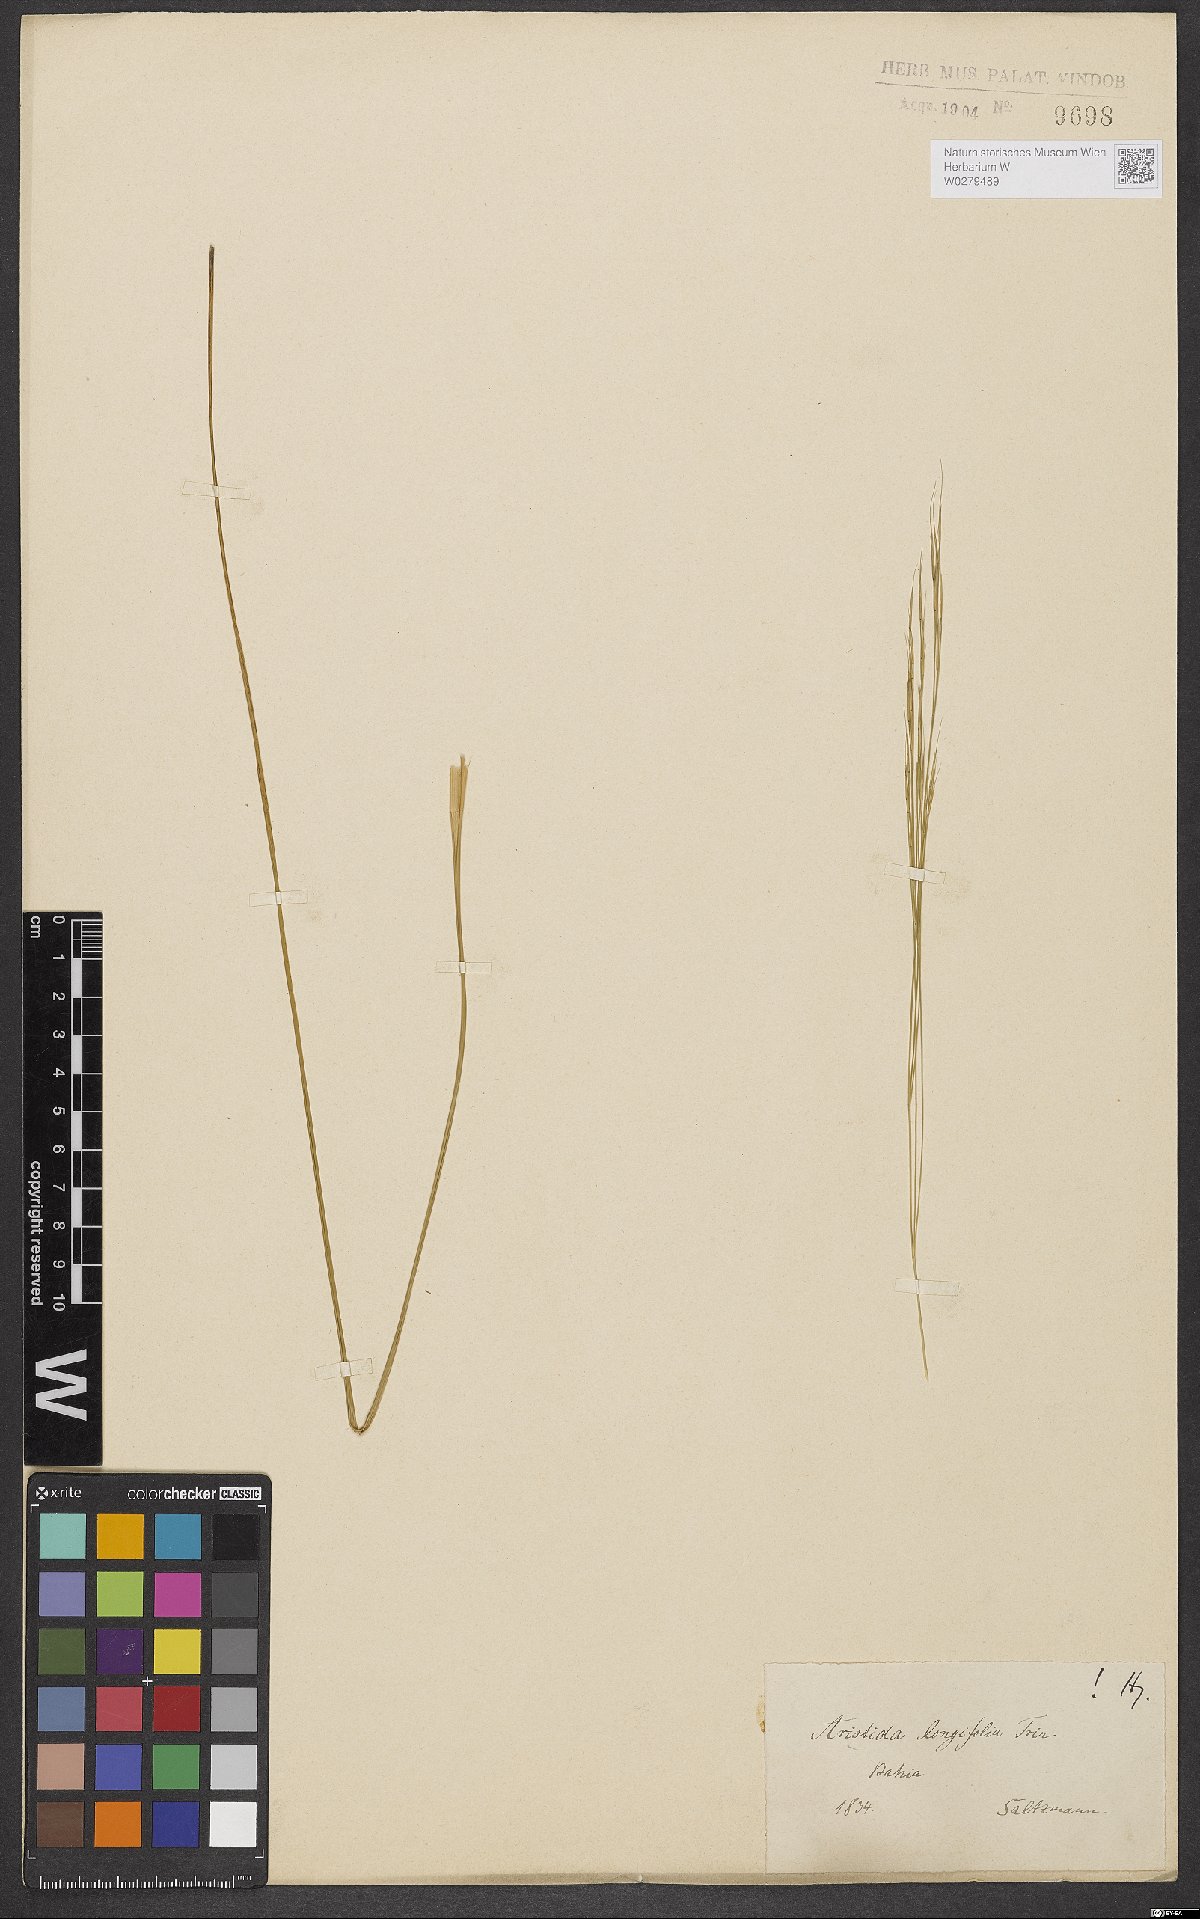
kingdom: Plantae
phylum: Tracheophyta
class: Liliopsida
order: Poales
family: Poaceae
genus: Aristida
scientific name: Aristida longifolia
